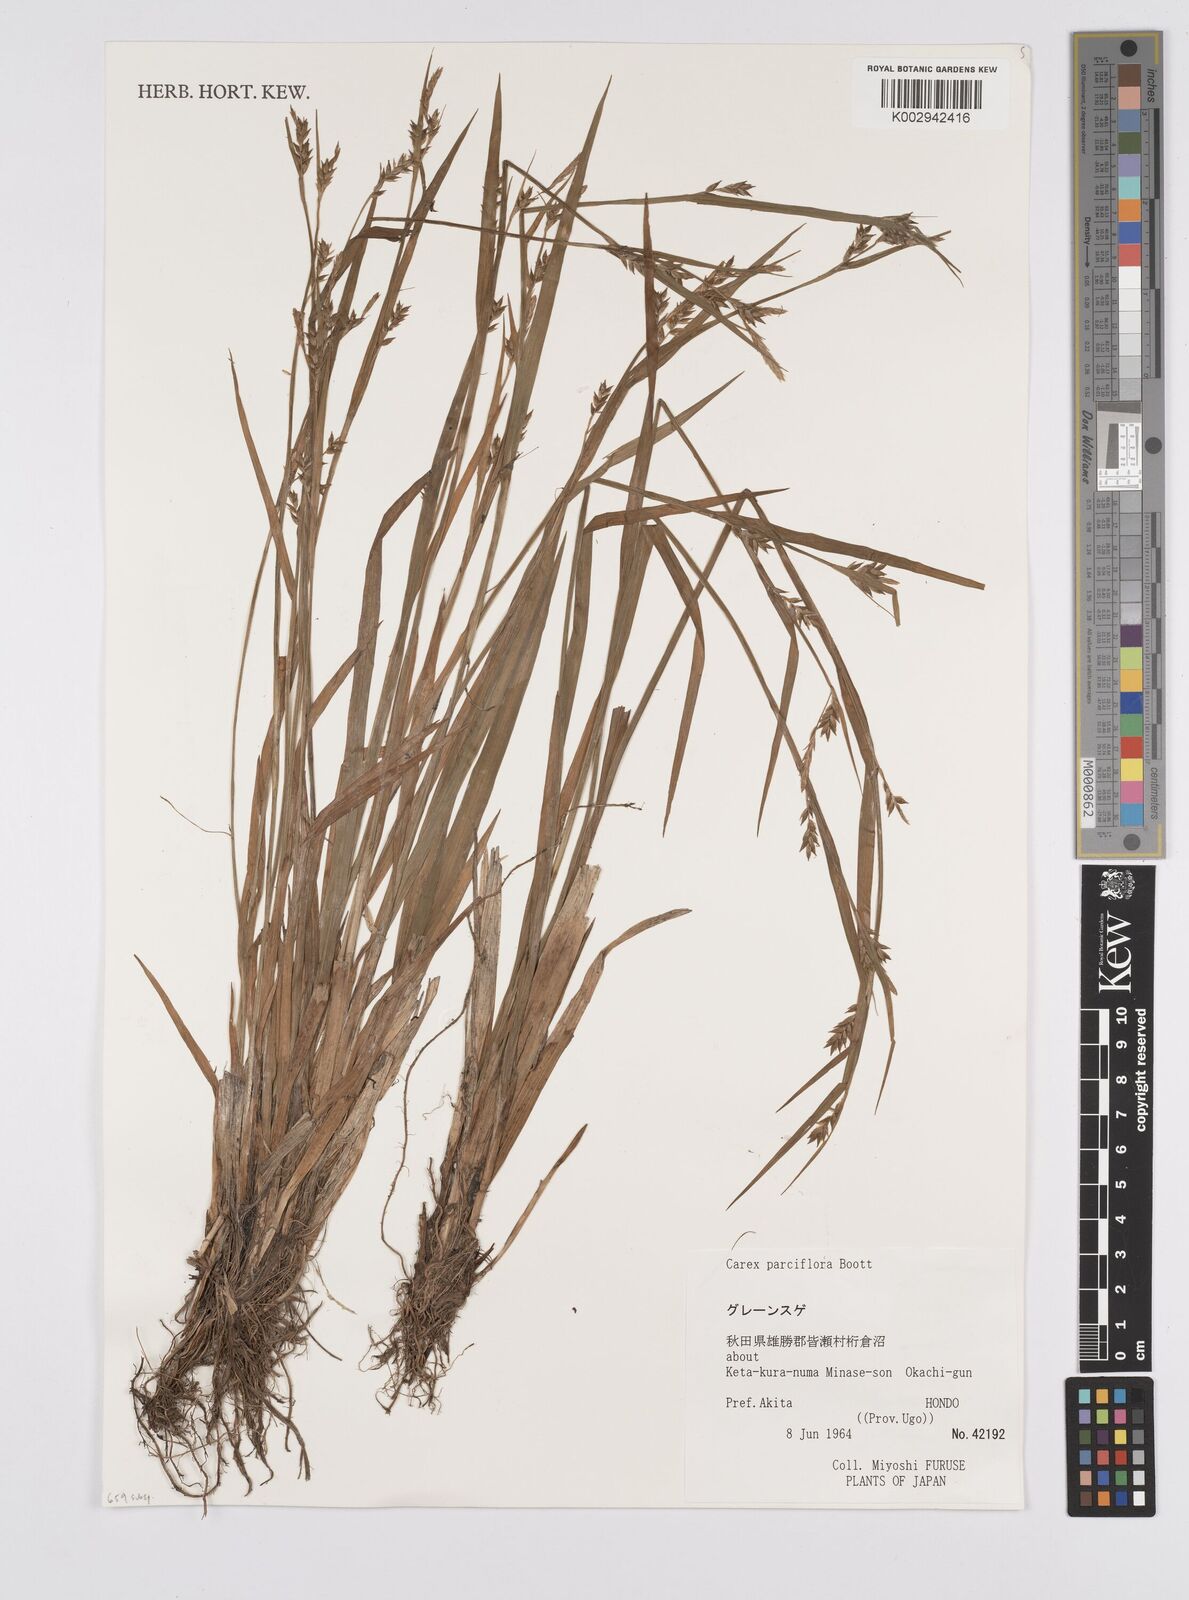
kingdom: Plantae
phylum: Tracheophyta
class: Liliopsida
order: Poales
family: Cyperaceae
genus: Carex
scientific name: Carex parciflora
